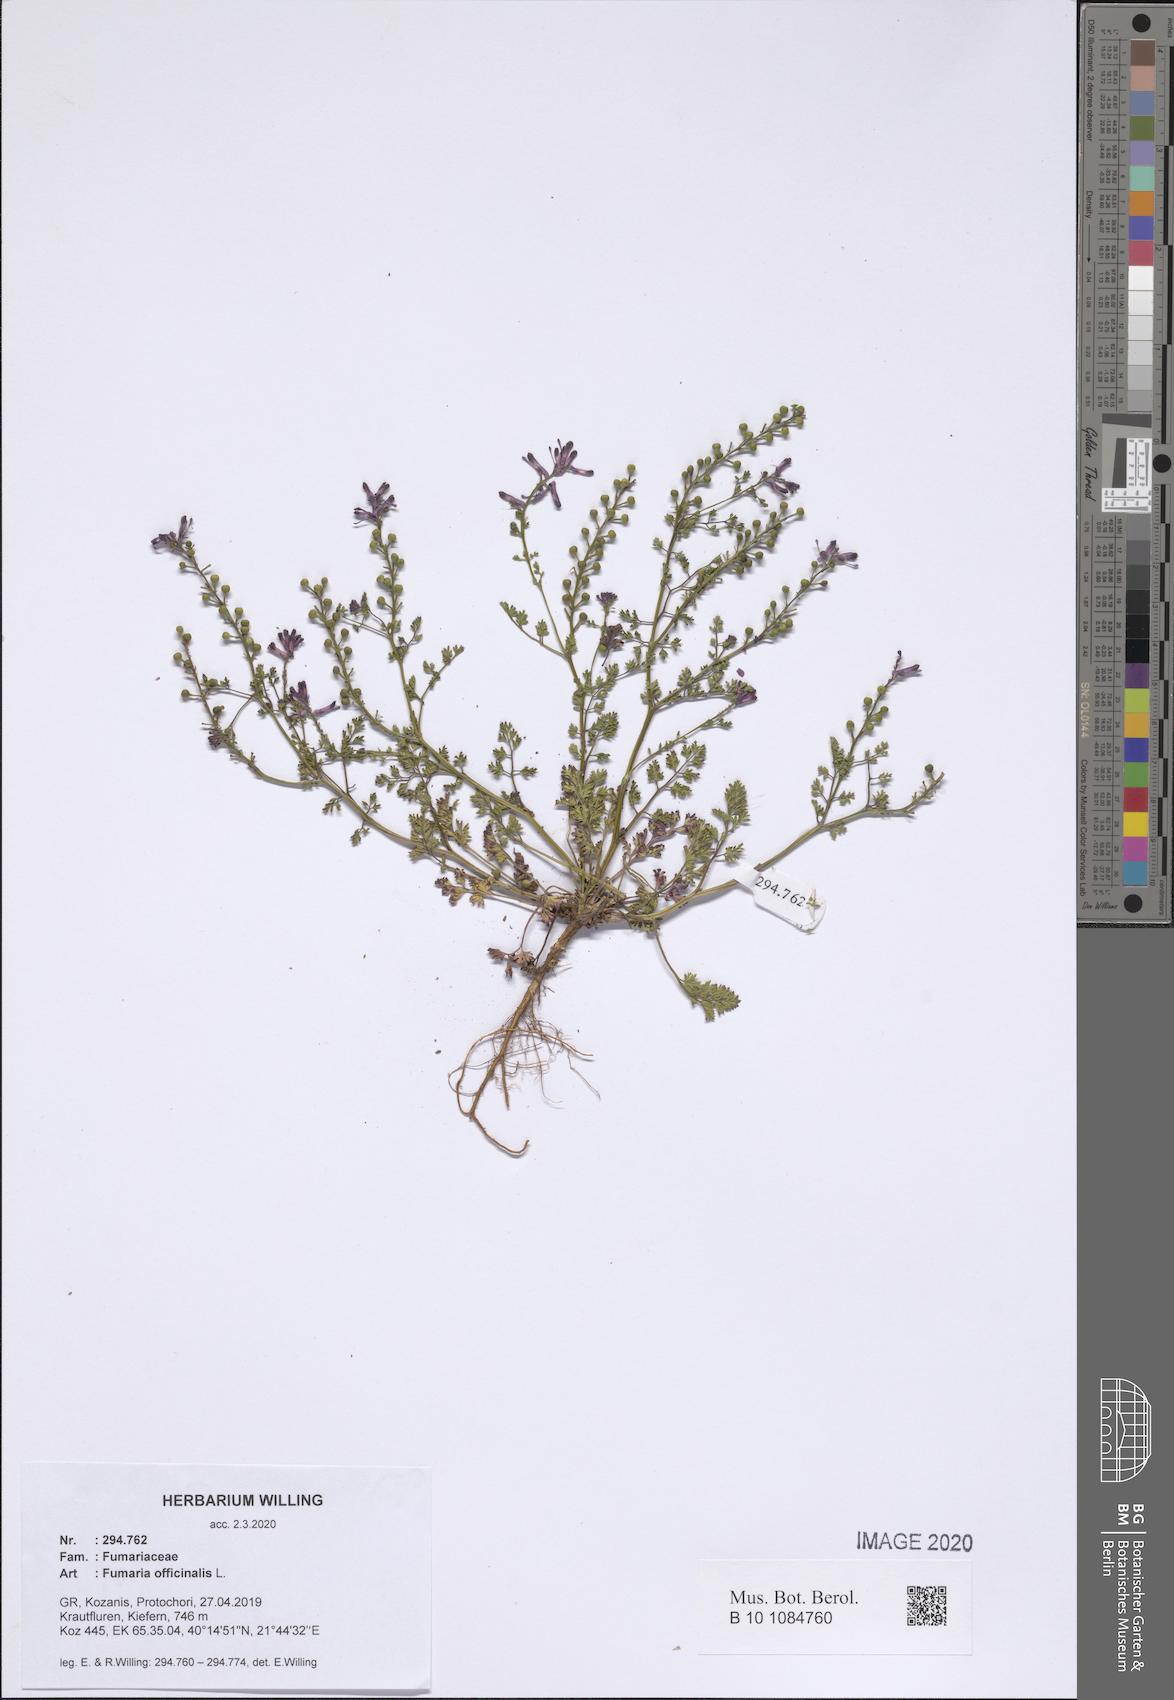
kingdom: Plantae
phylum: Tracheophyta
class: Magnoliopsida
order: Ranunculales
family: Papaveraceae
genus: Fumaria
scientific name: Fumaria officinalis
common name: Common fumitory
